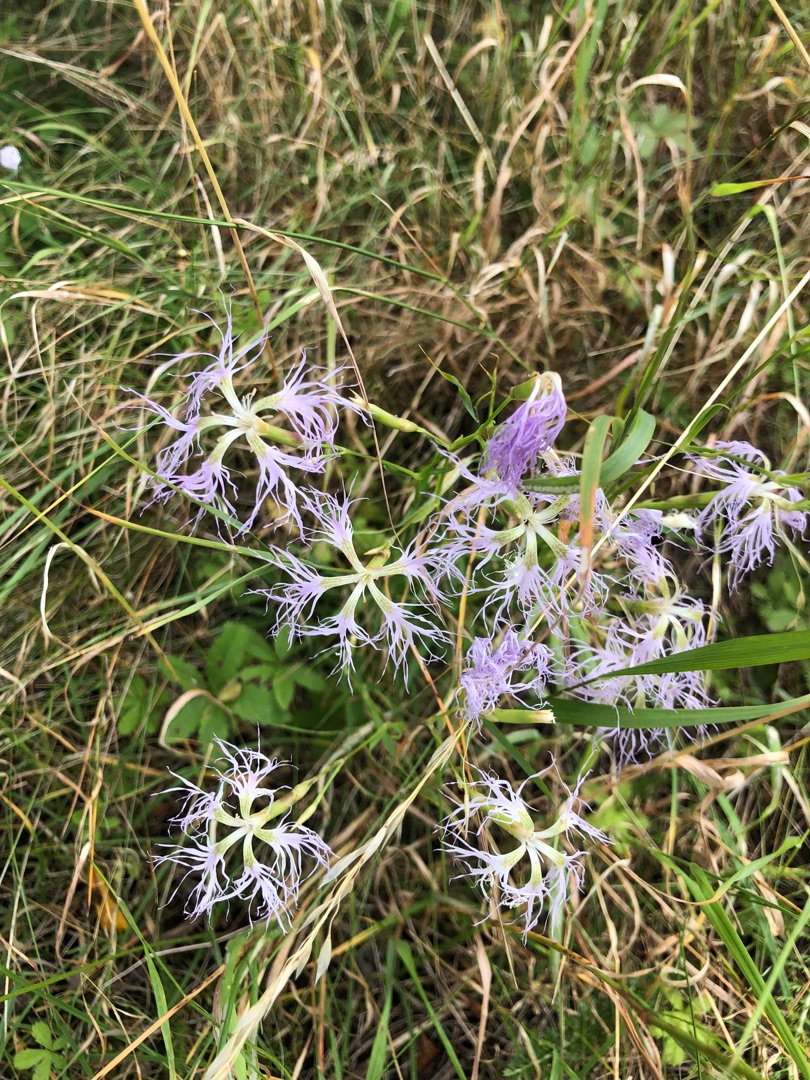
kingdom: Plantae
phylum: Tracheophyta
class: Magnoliopsida
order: Caryophyllales
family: Caryophyllaceae
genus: Dianthus
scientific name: Dianthus superbus
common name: Strand-nellike
